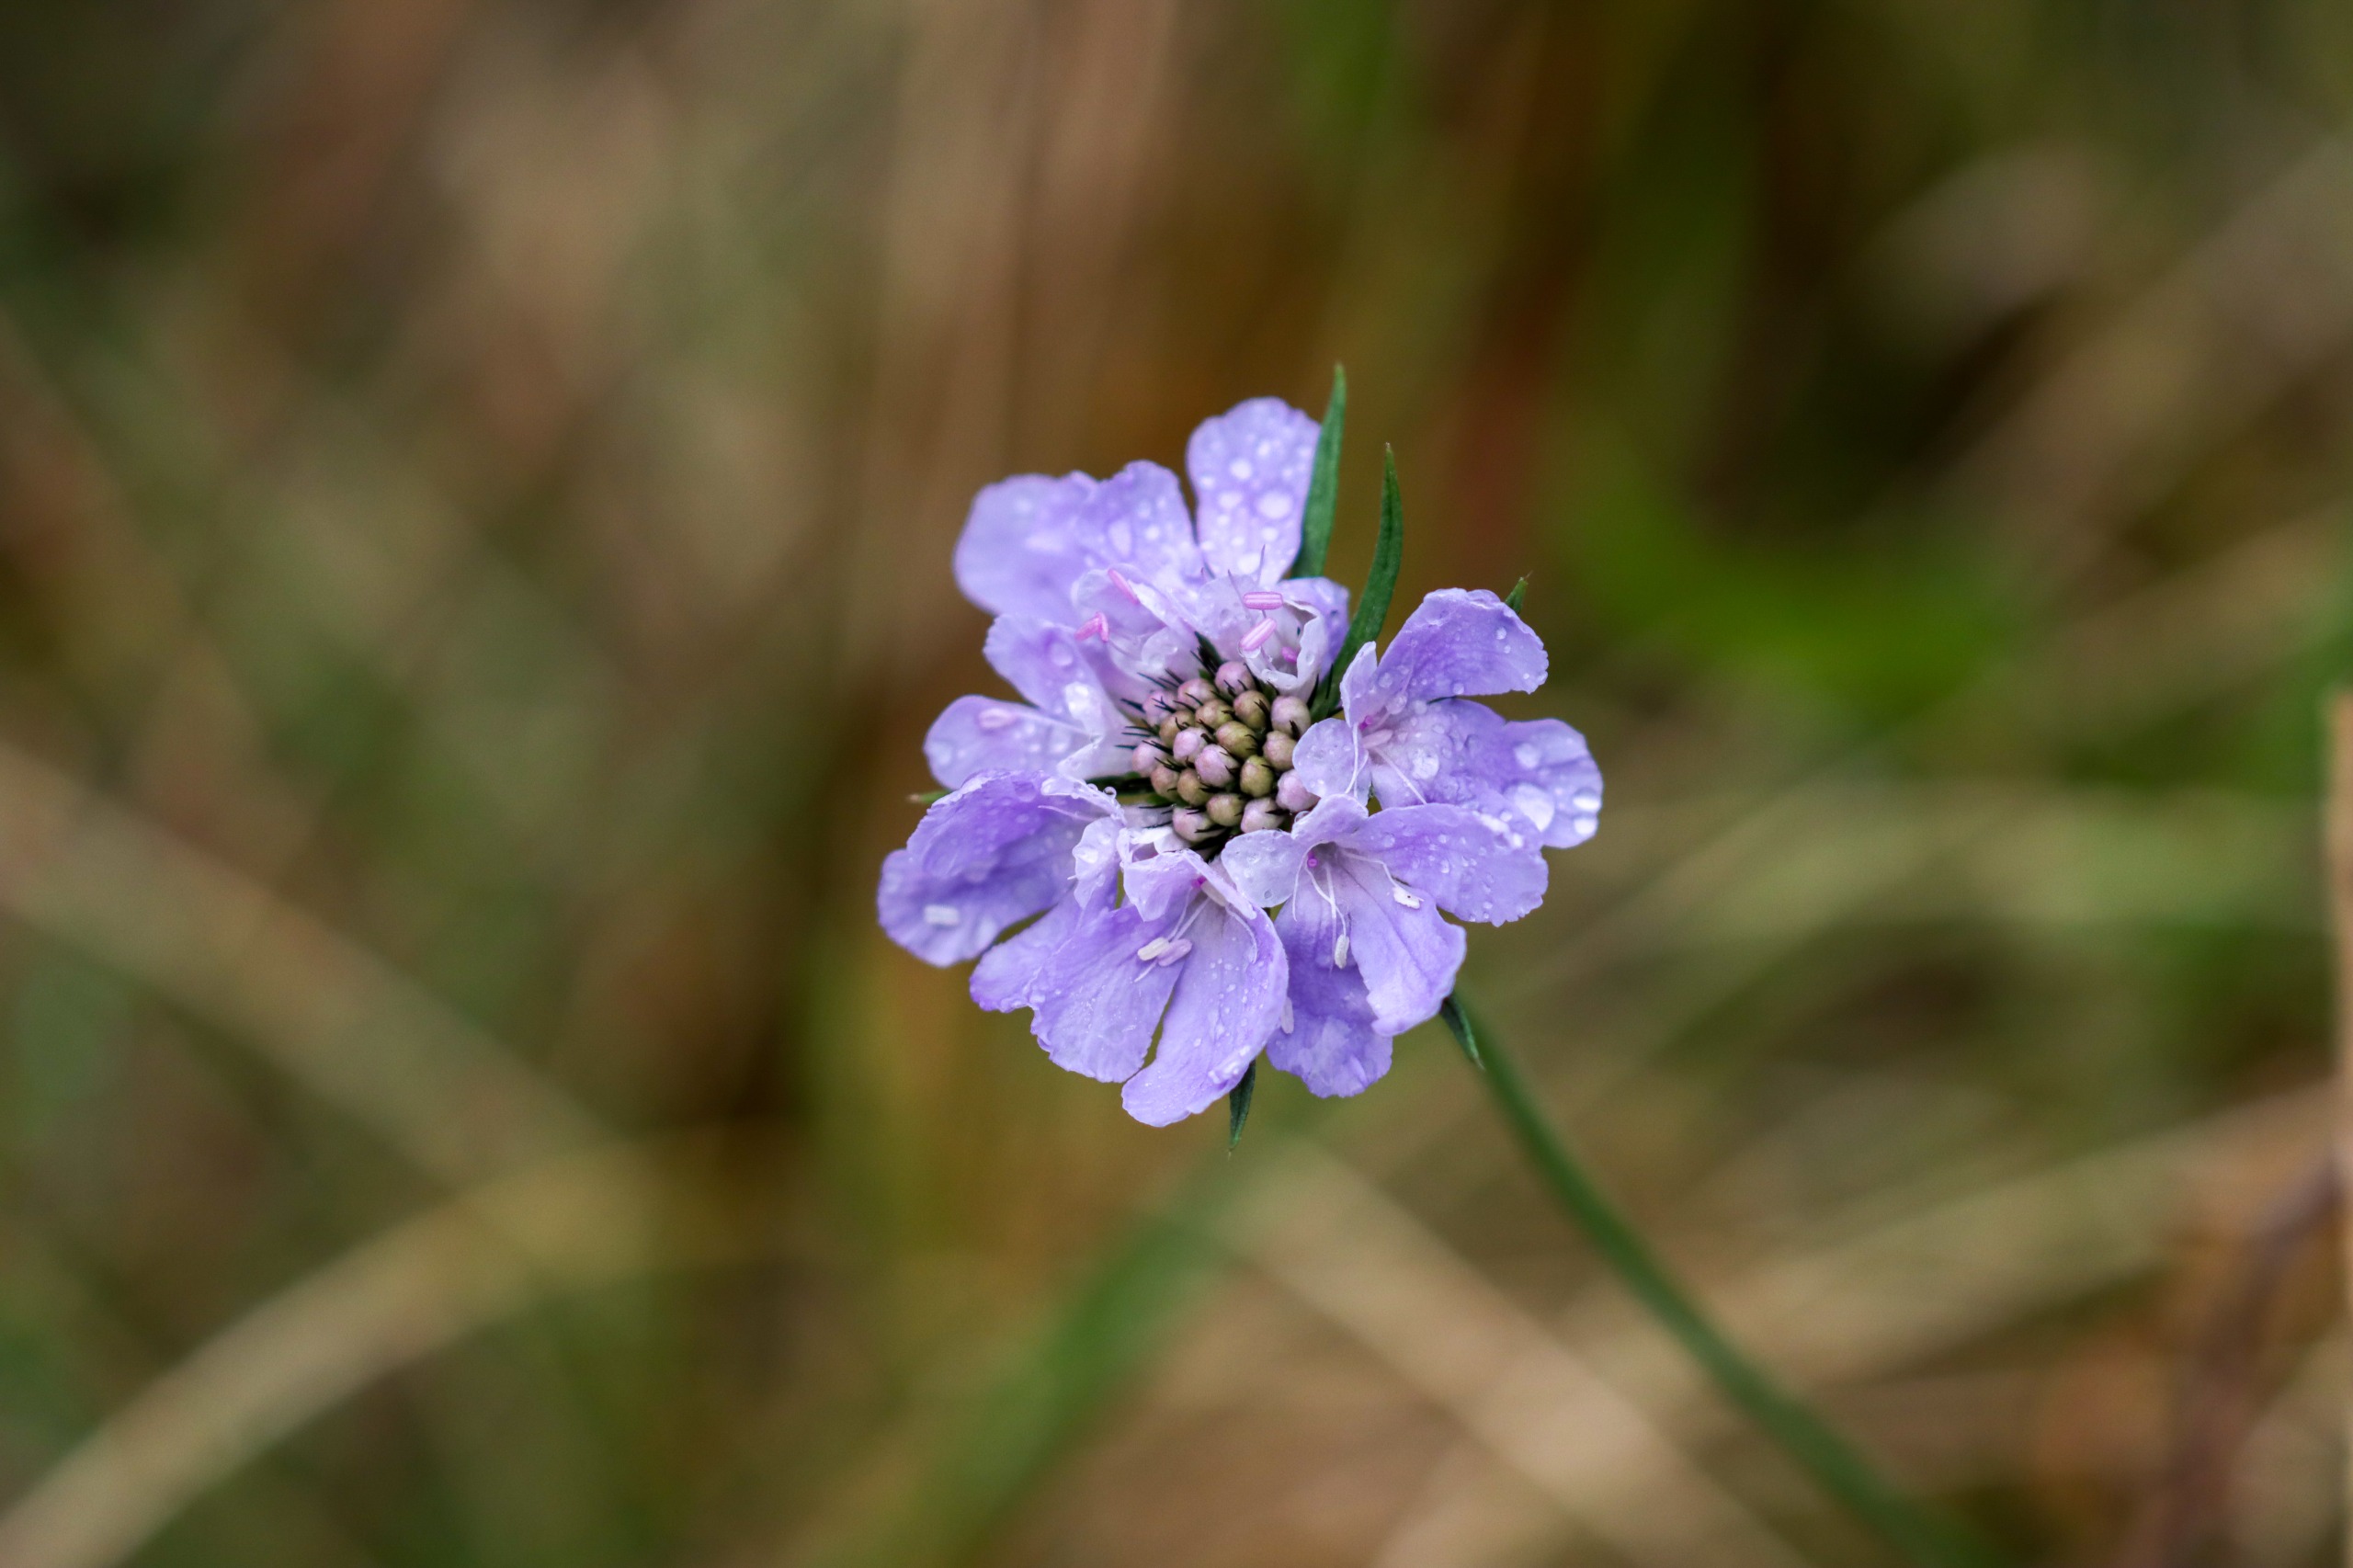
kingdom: Plantae
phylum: Tracheophyta
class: Magnoliopsida
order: Dipsacales
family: Caprifoliaceae
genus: Scabiosa
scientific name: Scabiosa columbaria
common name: Due-skabiose
